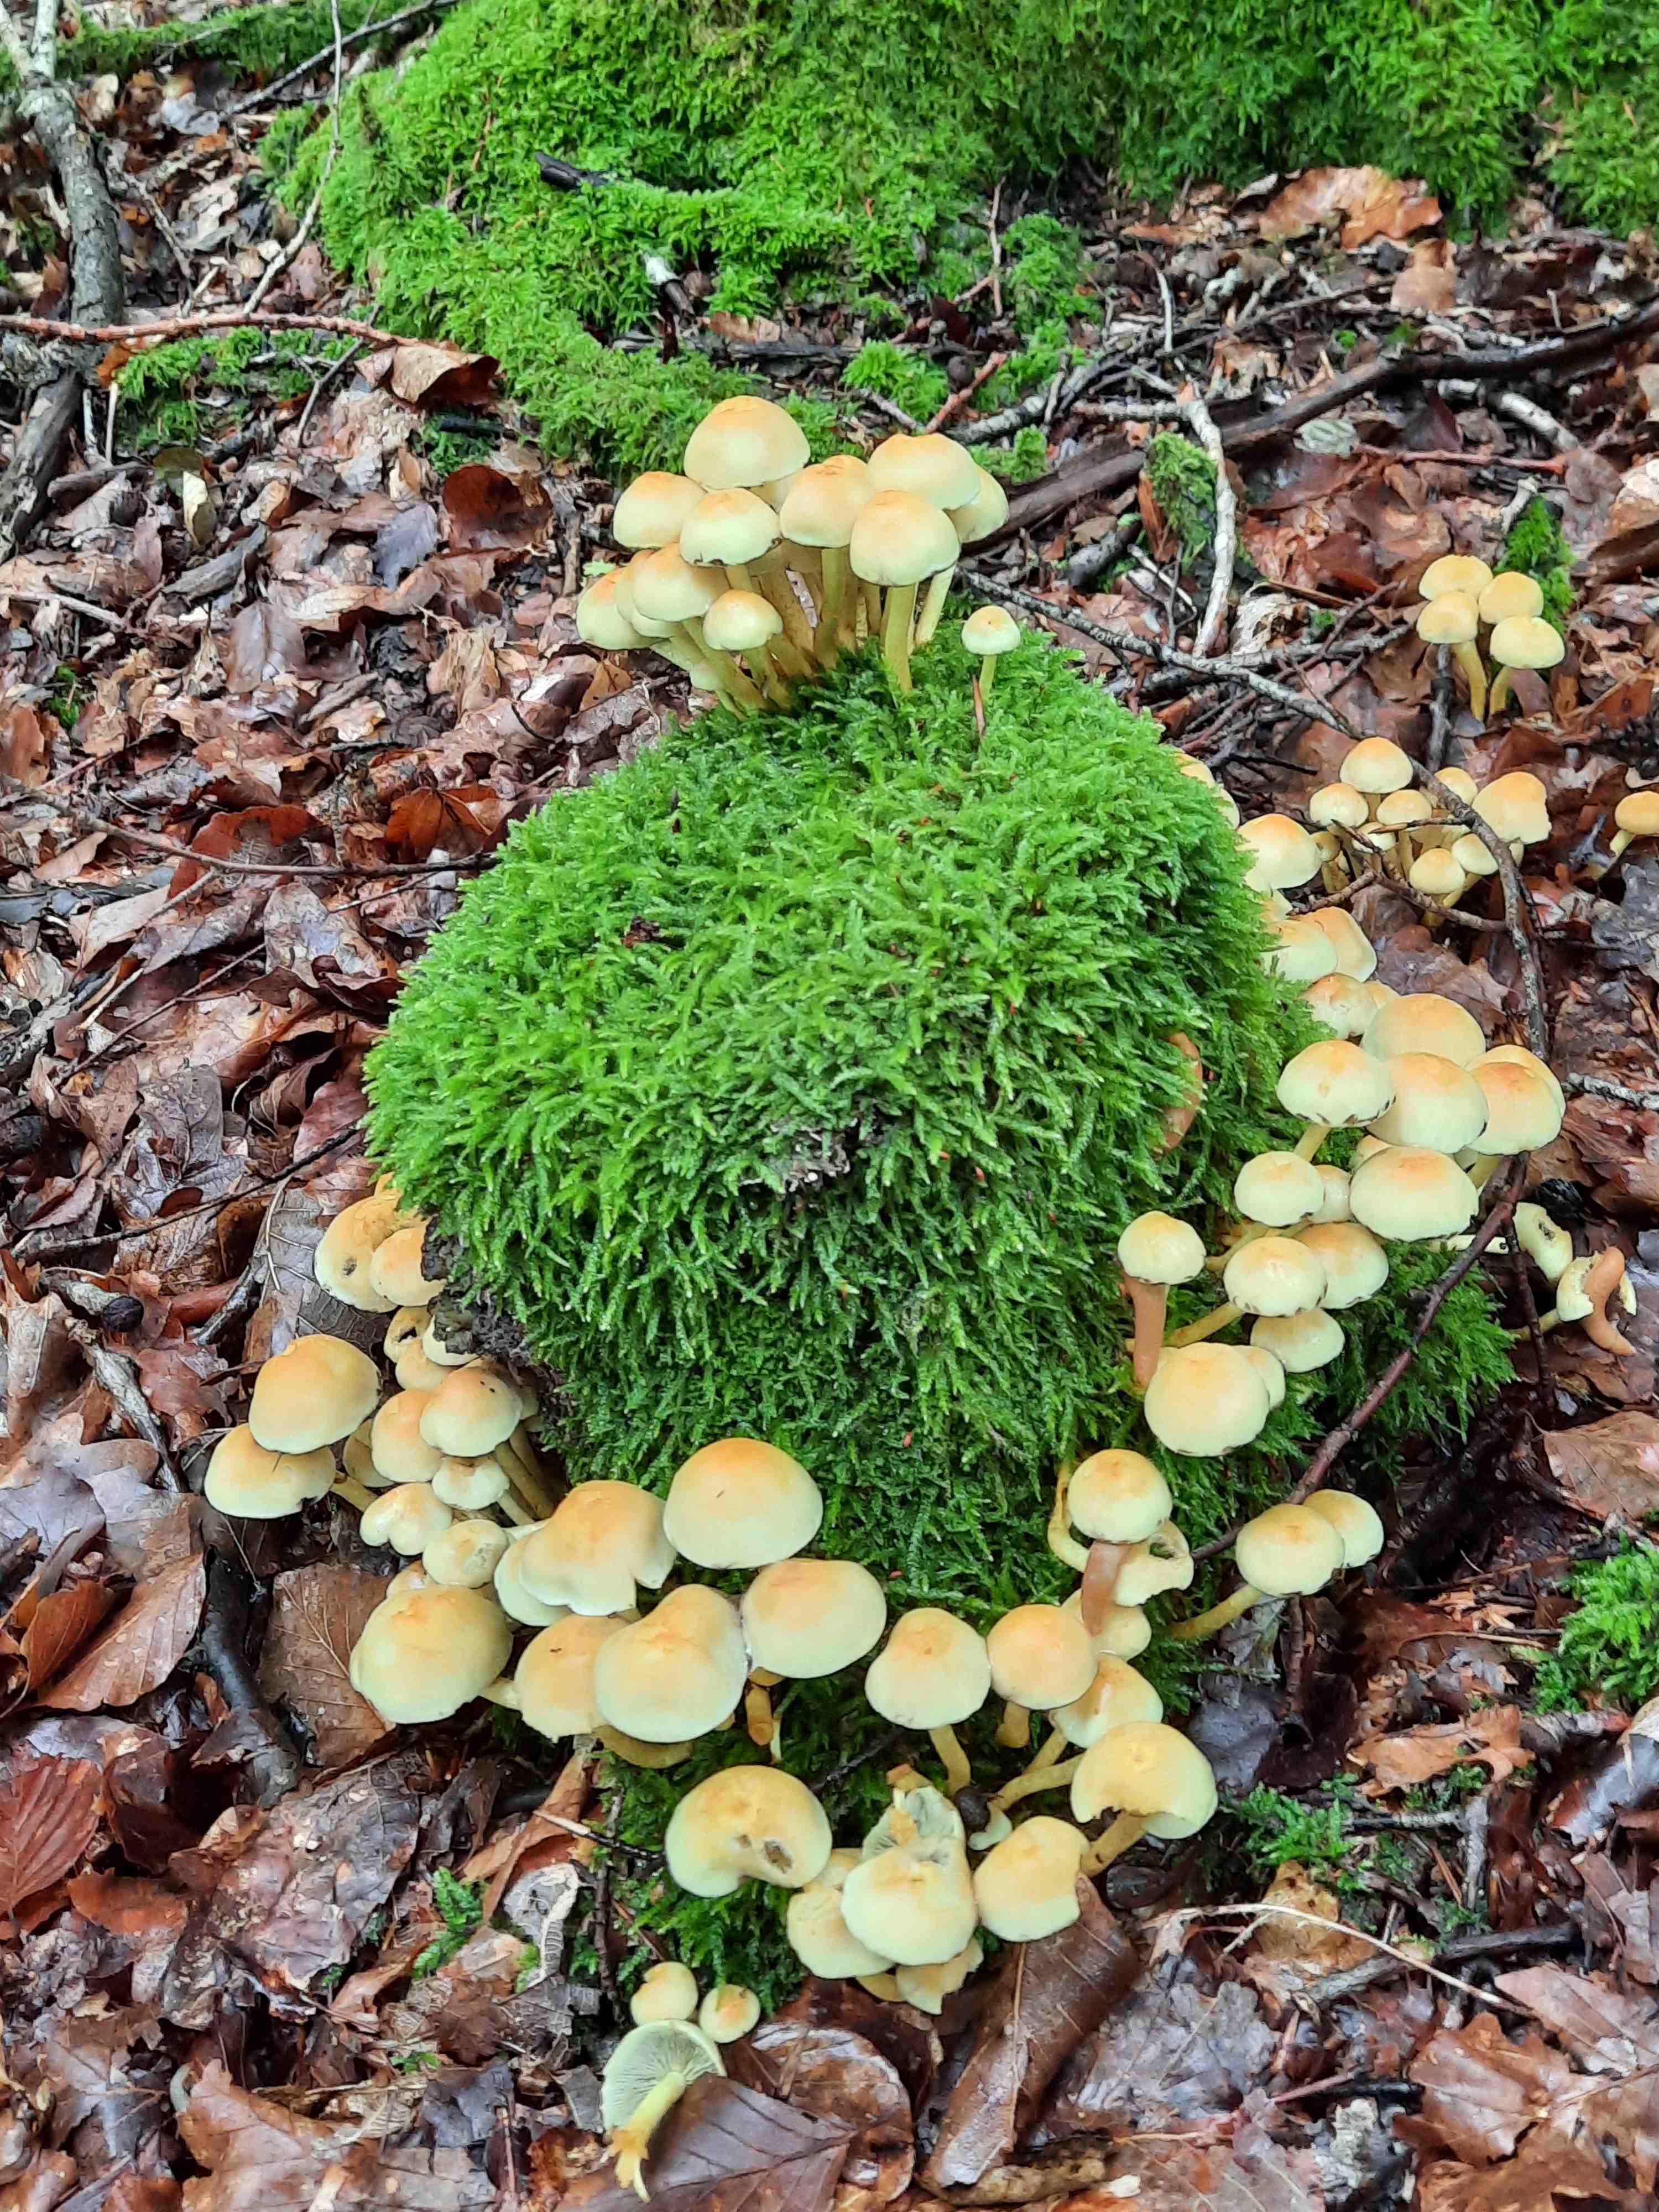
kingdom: Fungi
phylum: Basidiomycota
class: Agaricomycetes
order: Agaricales
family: Strophariaceae
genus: Hypholoma
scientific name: Hypholoma fasciculare
